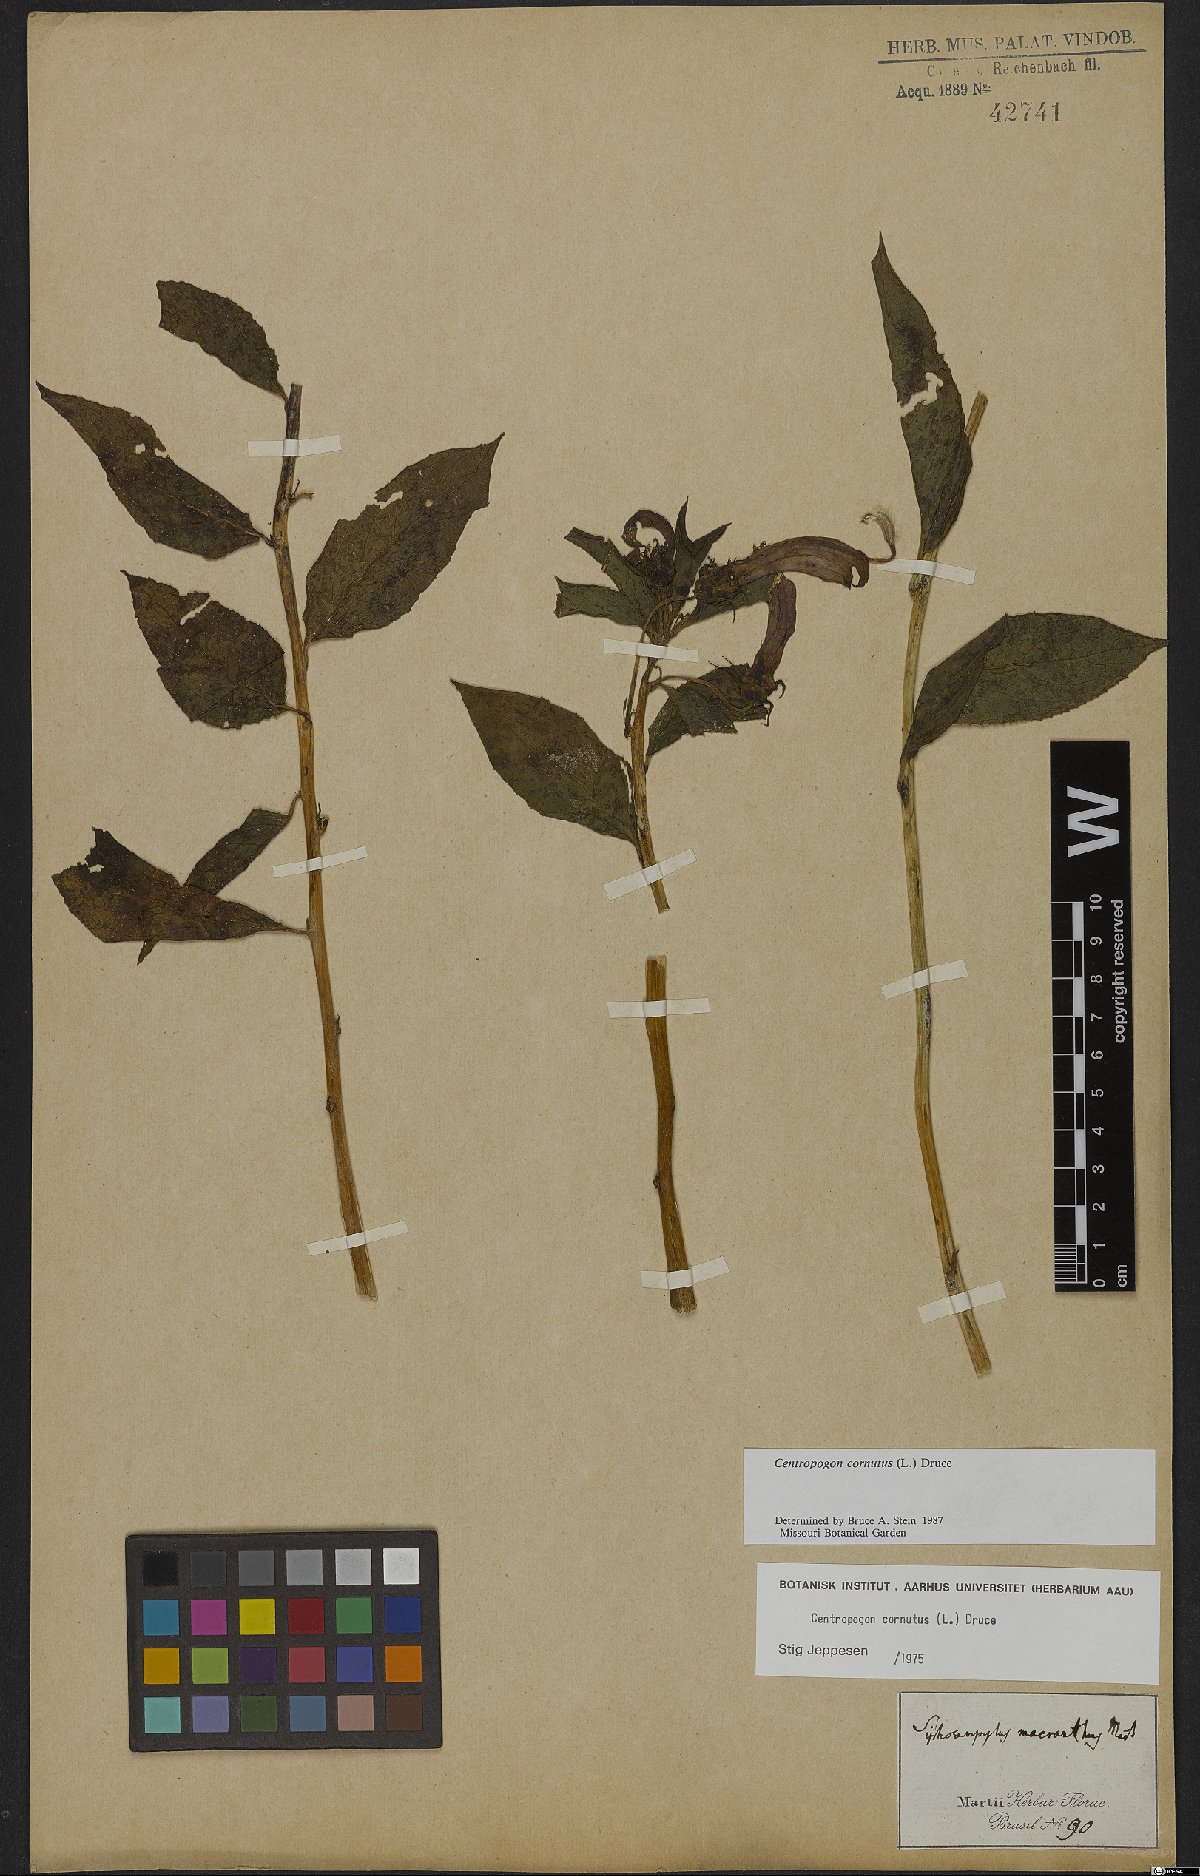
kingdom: Plantae
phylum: Tracheophyta
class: Magnoliopsida
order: Asterales
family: Campanulaceae
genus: Centropogon
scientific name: Centropogon cornutus
